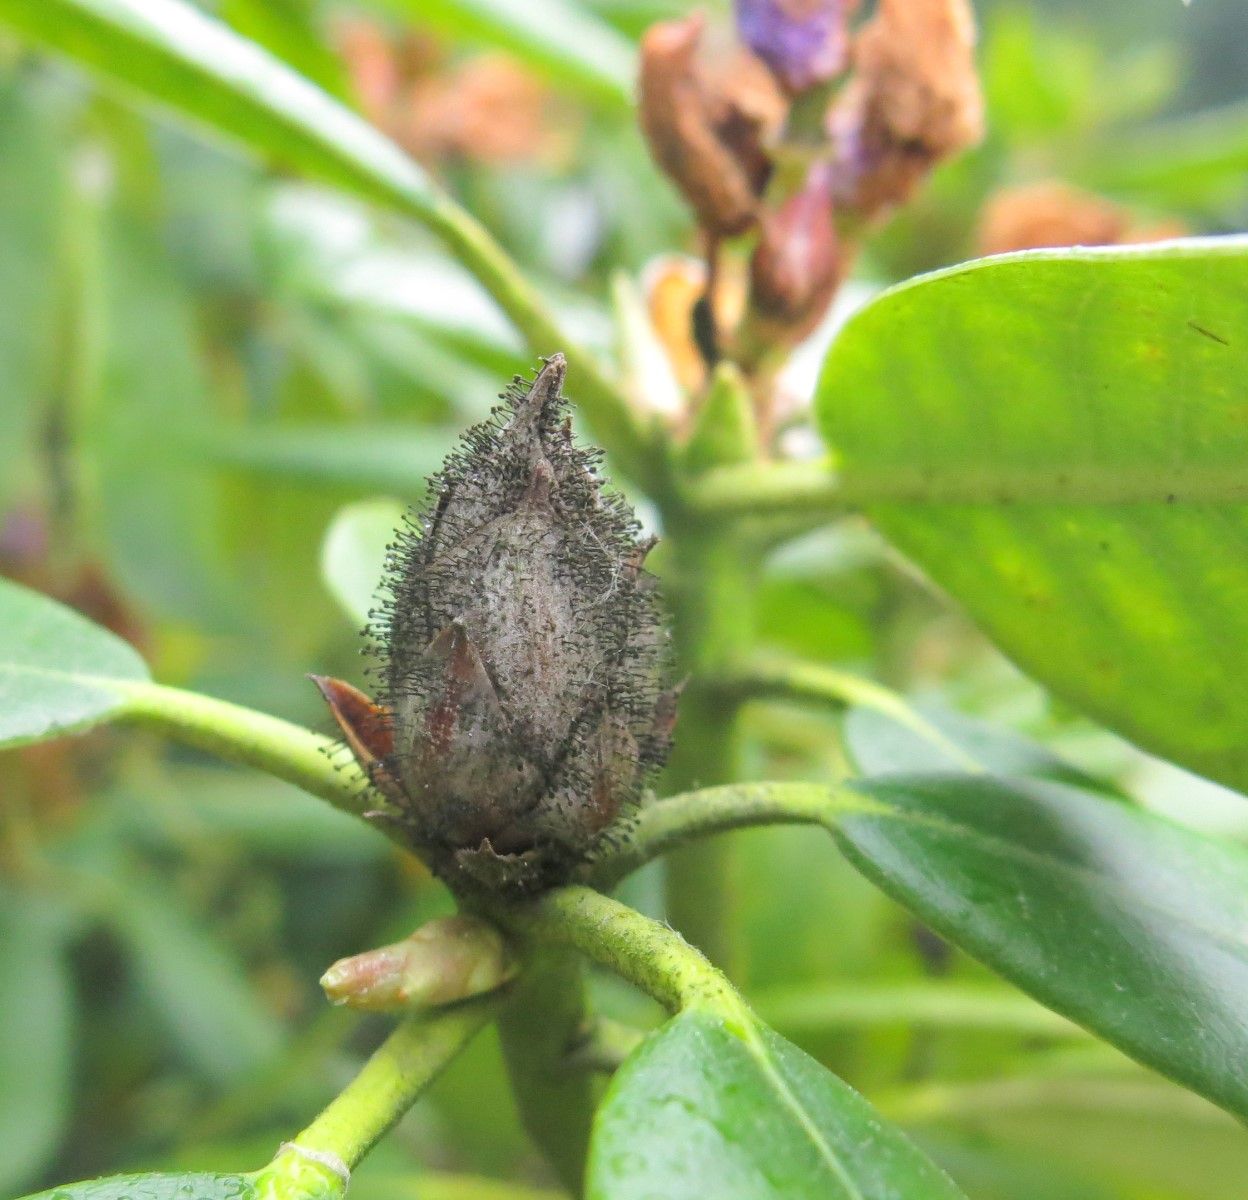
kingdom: Fungi
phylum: Ascomycota
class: Dothideomycetes
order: Pleosporales
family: Melanommataceae
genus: Seifertia
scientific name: Seifertia azaleae
